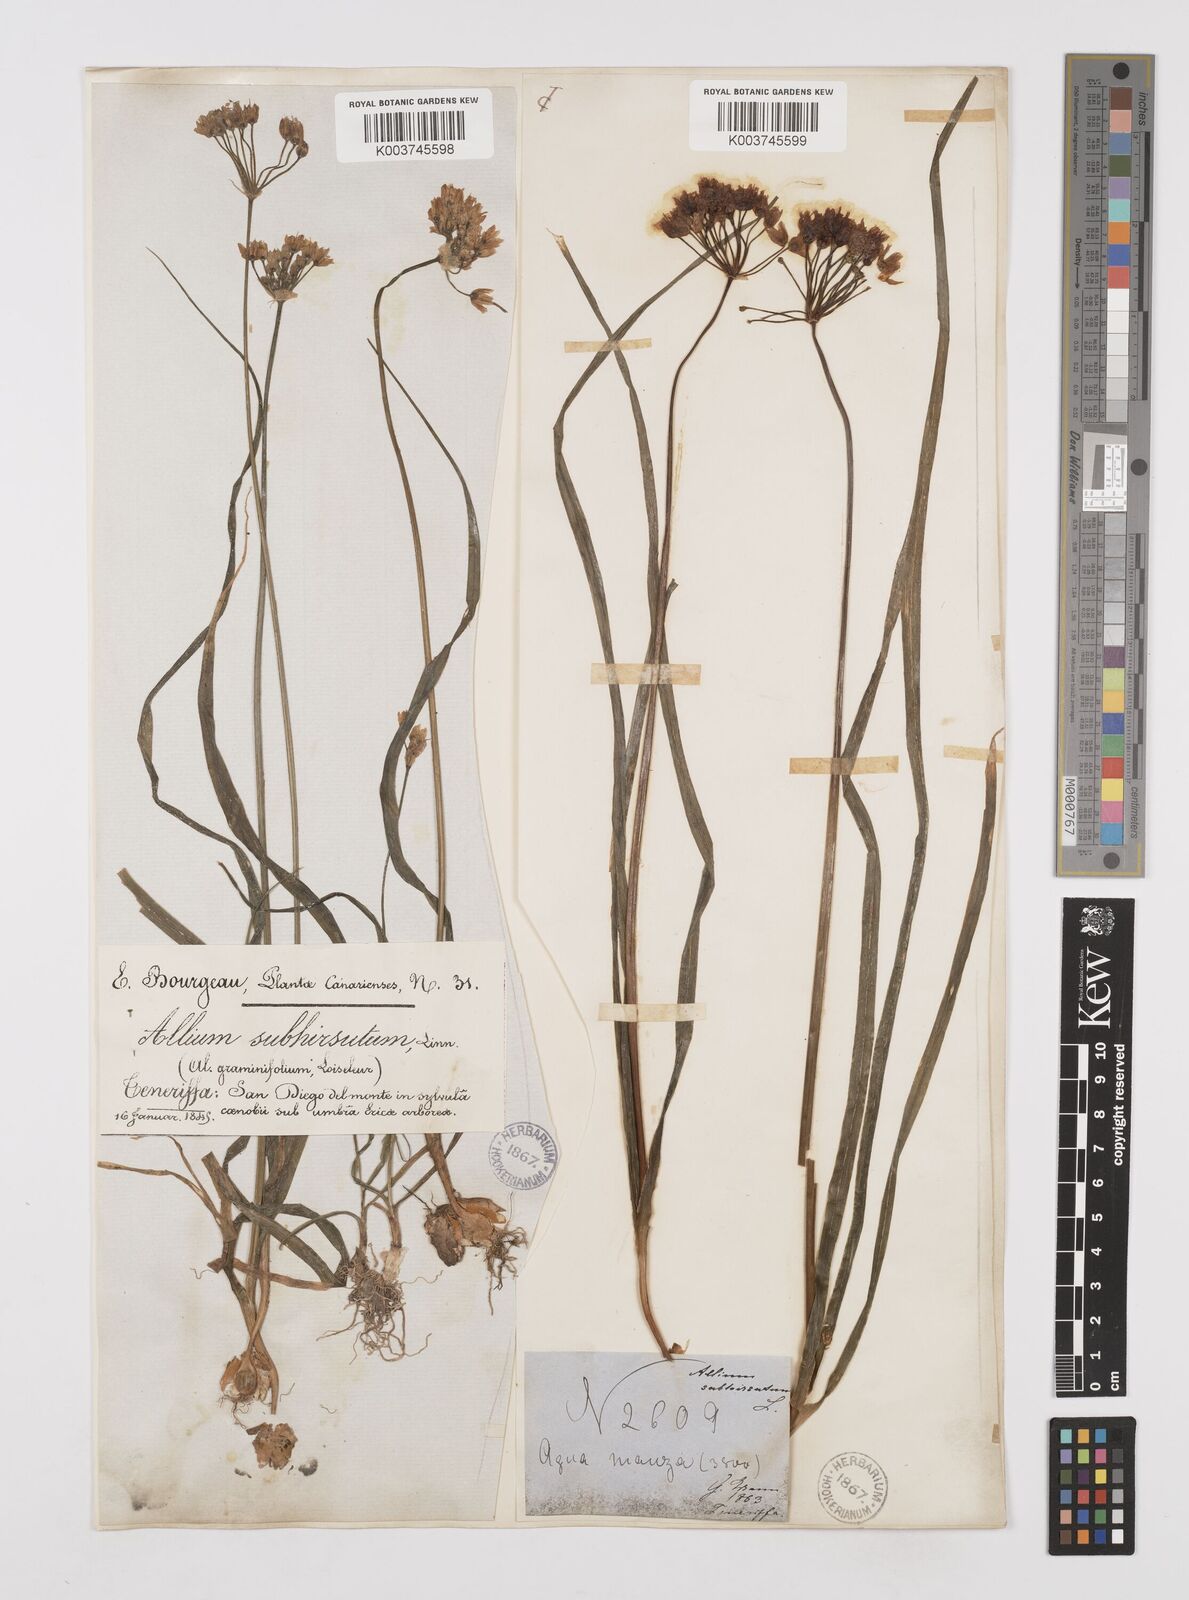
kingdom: Plantae
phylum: Tracheophyta
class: Liliopsida
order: Asparagales
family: Amaryllidaceae
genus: Allium
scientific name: Allium subvillosum
